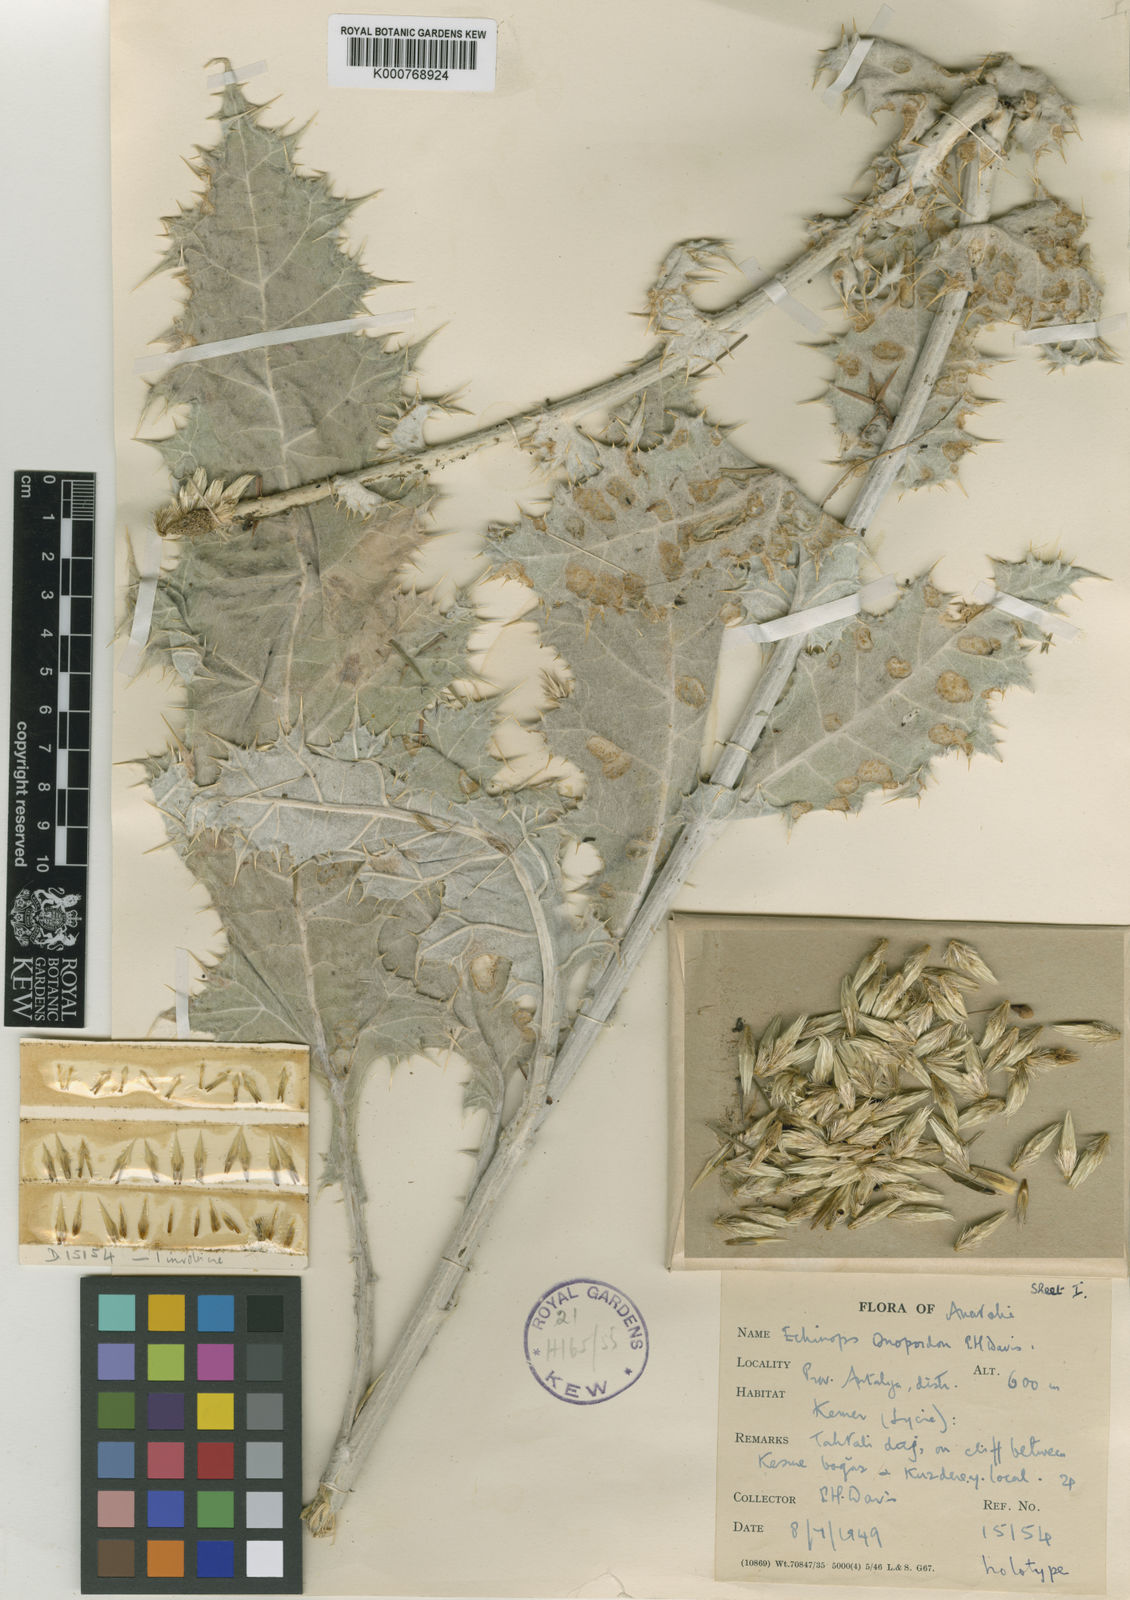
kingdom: Plantae
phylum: Tracheophyta
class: Magnoliopsida
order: Asterales
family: Asteraceae
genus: Echinops
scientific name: Echinops onopordum
